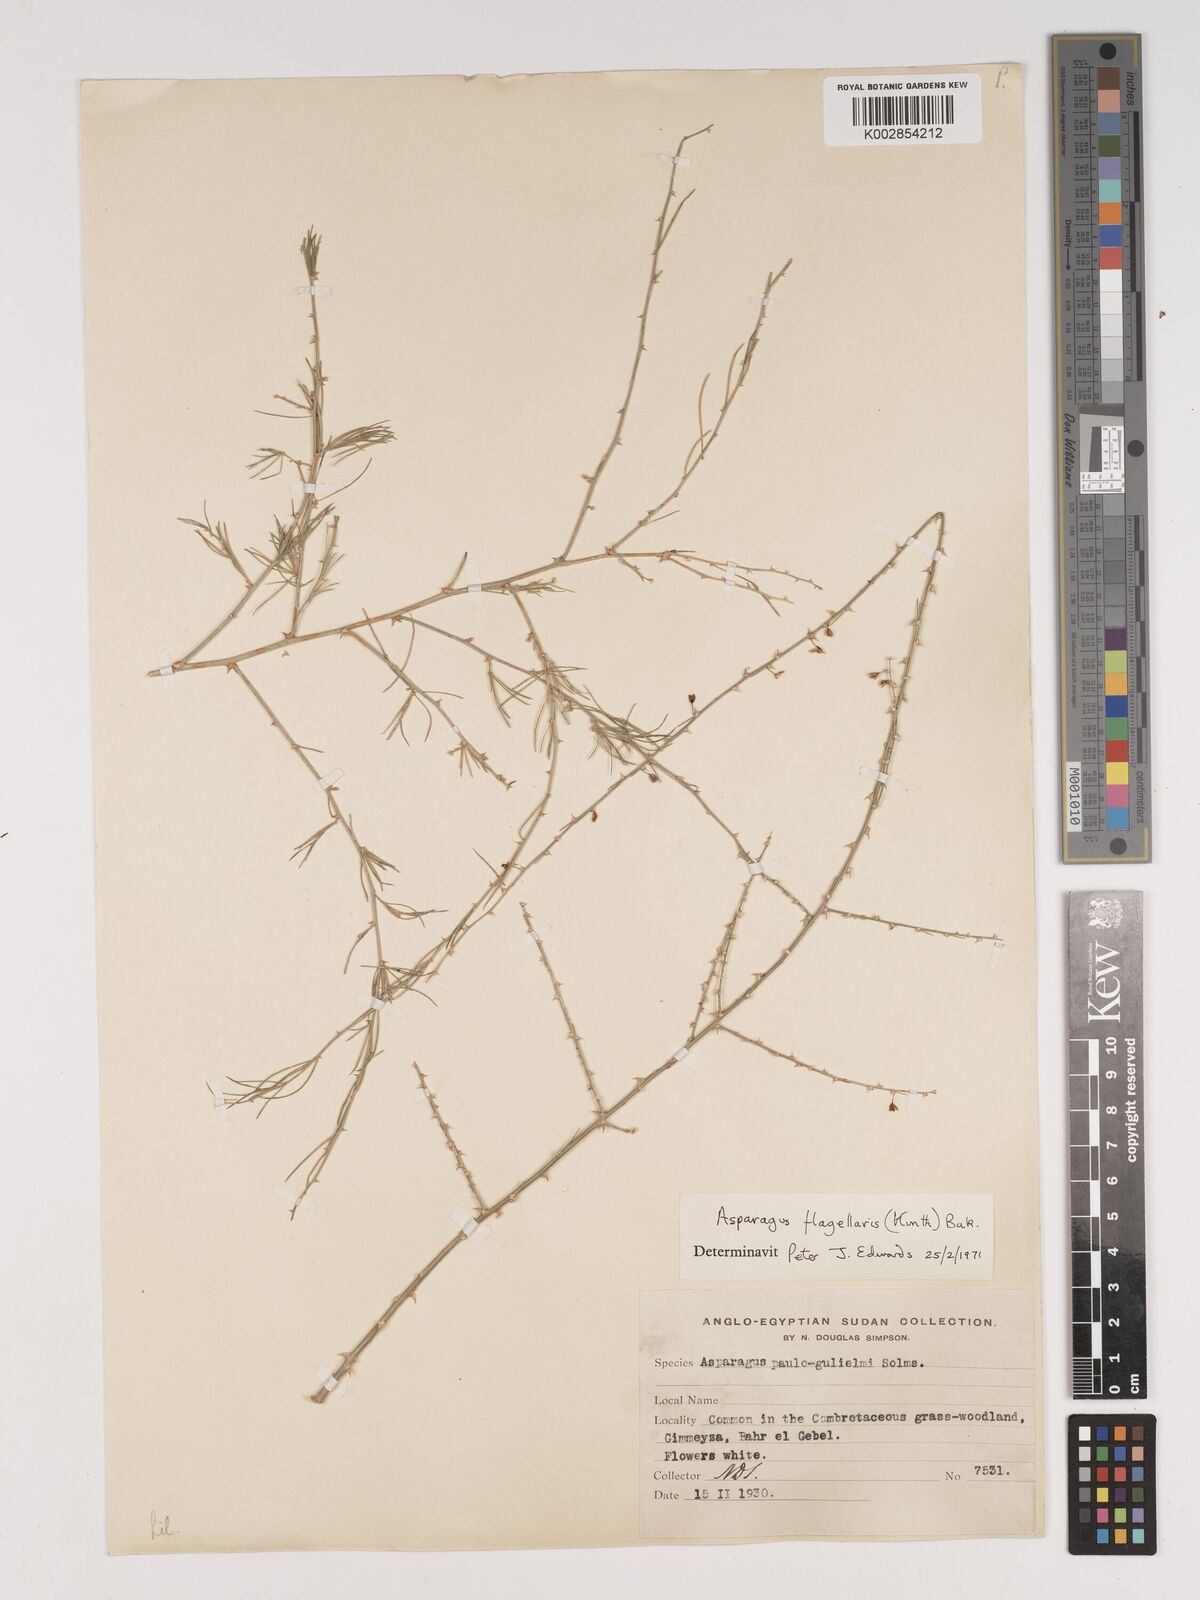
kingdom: Plantae
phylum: Tracheophyta
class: Liliopsida
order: Asparagales
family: Asparagaceae
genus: Asparagus
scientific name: Asparagus flagellaris
